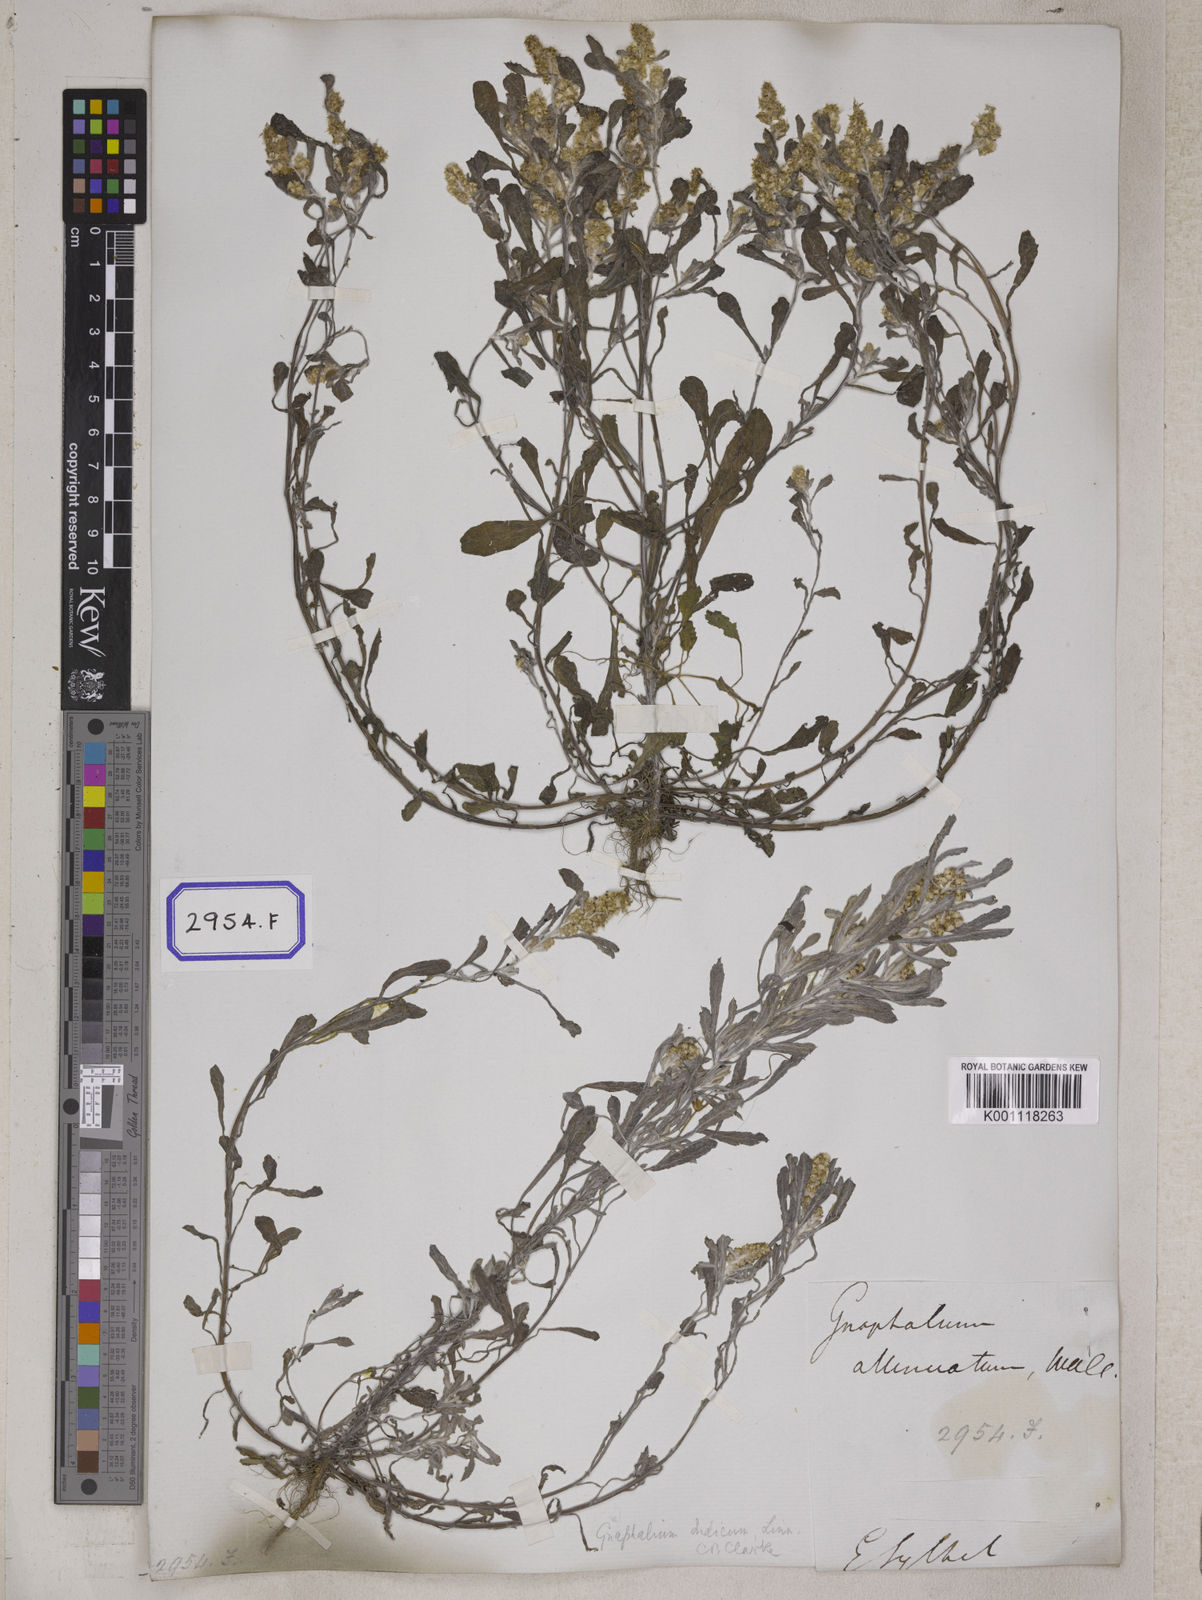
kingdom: Plantae
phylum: Tracheophyta
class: Magnoliopsida
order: Asterales
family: Asteraceae
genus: Helichrysum
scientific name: Helichrysum indicum
